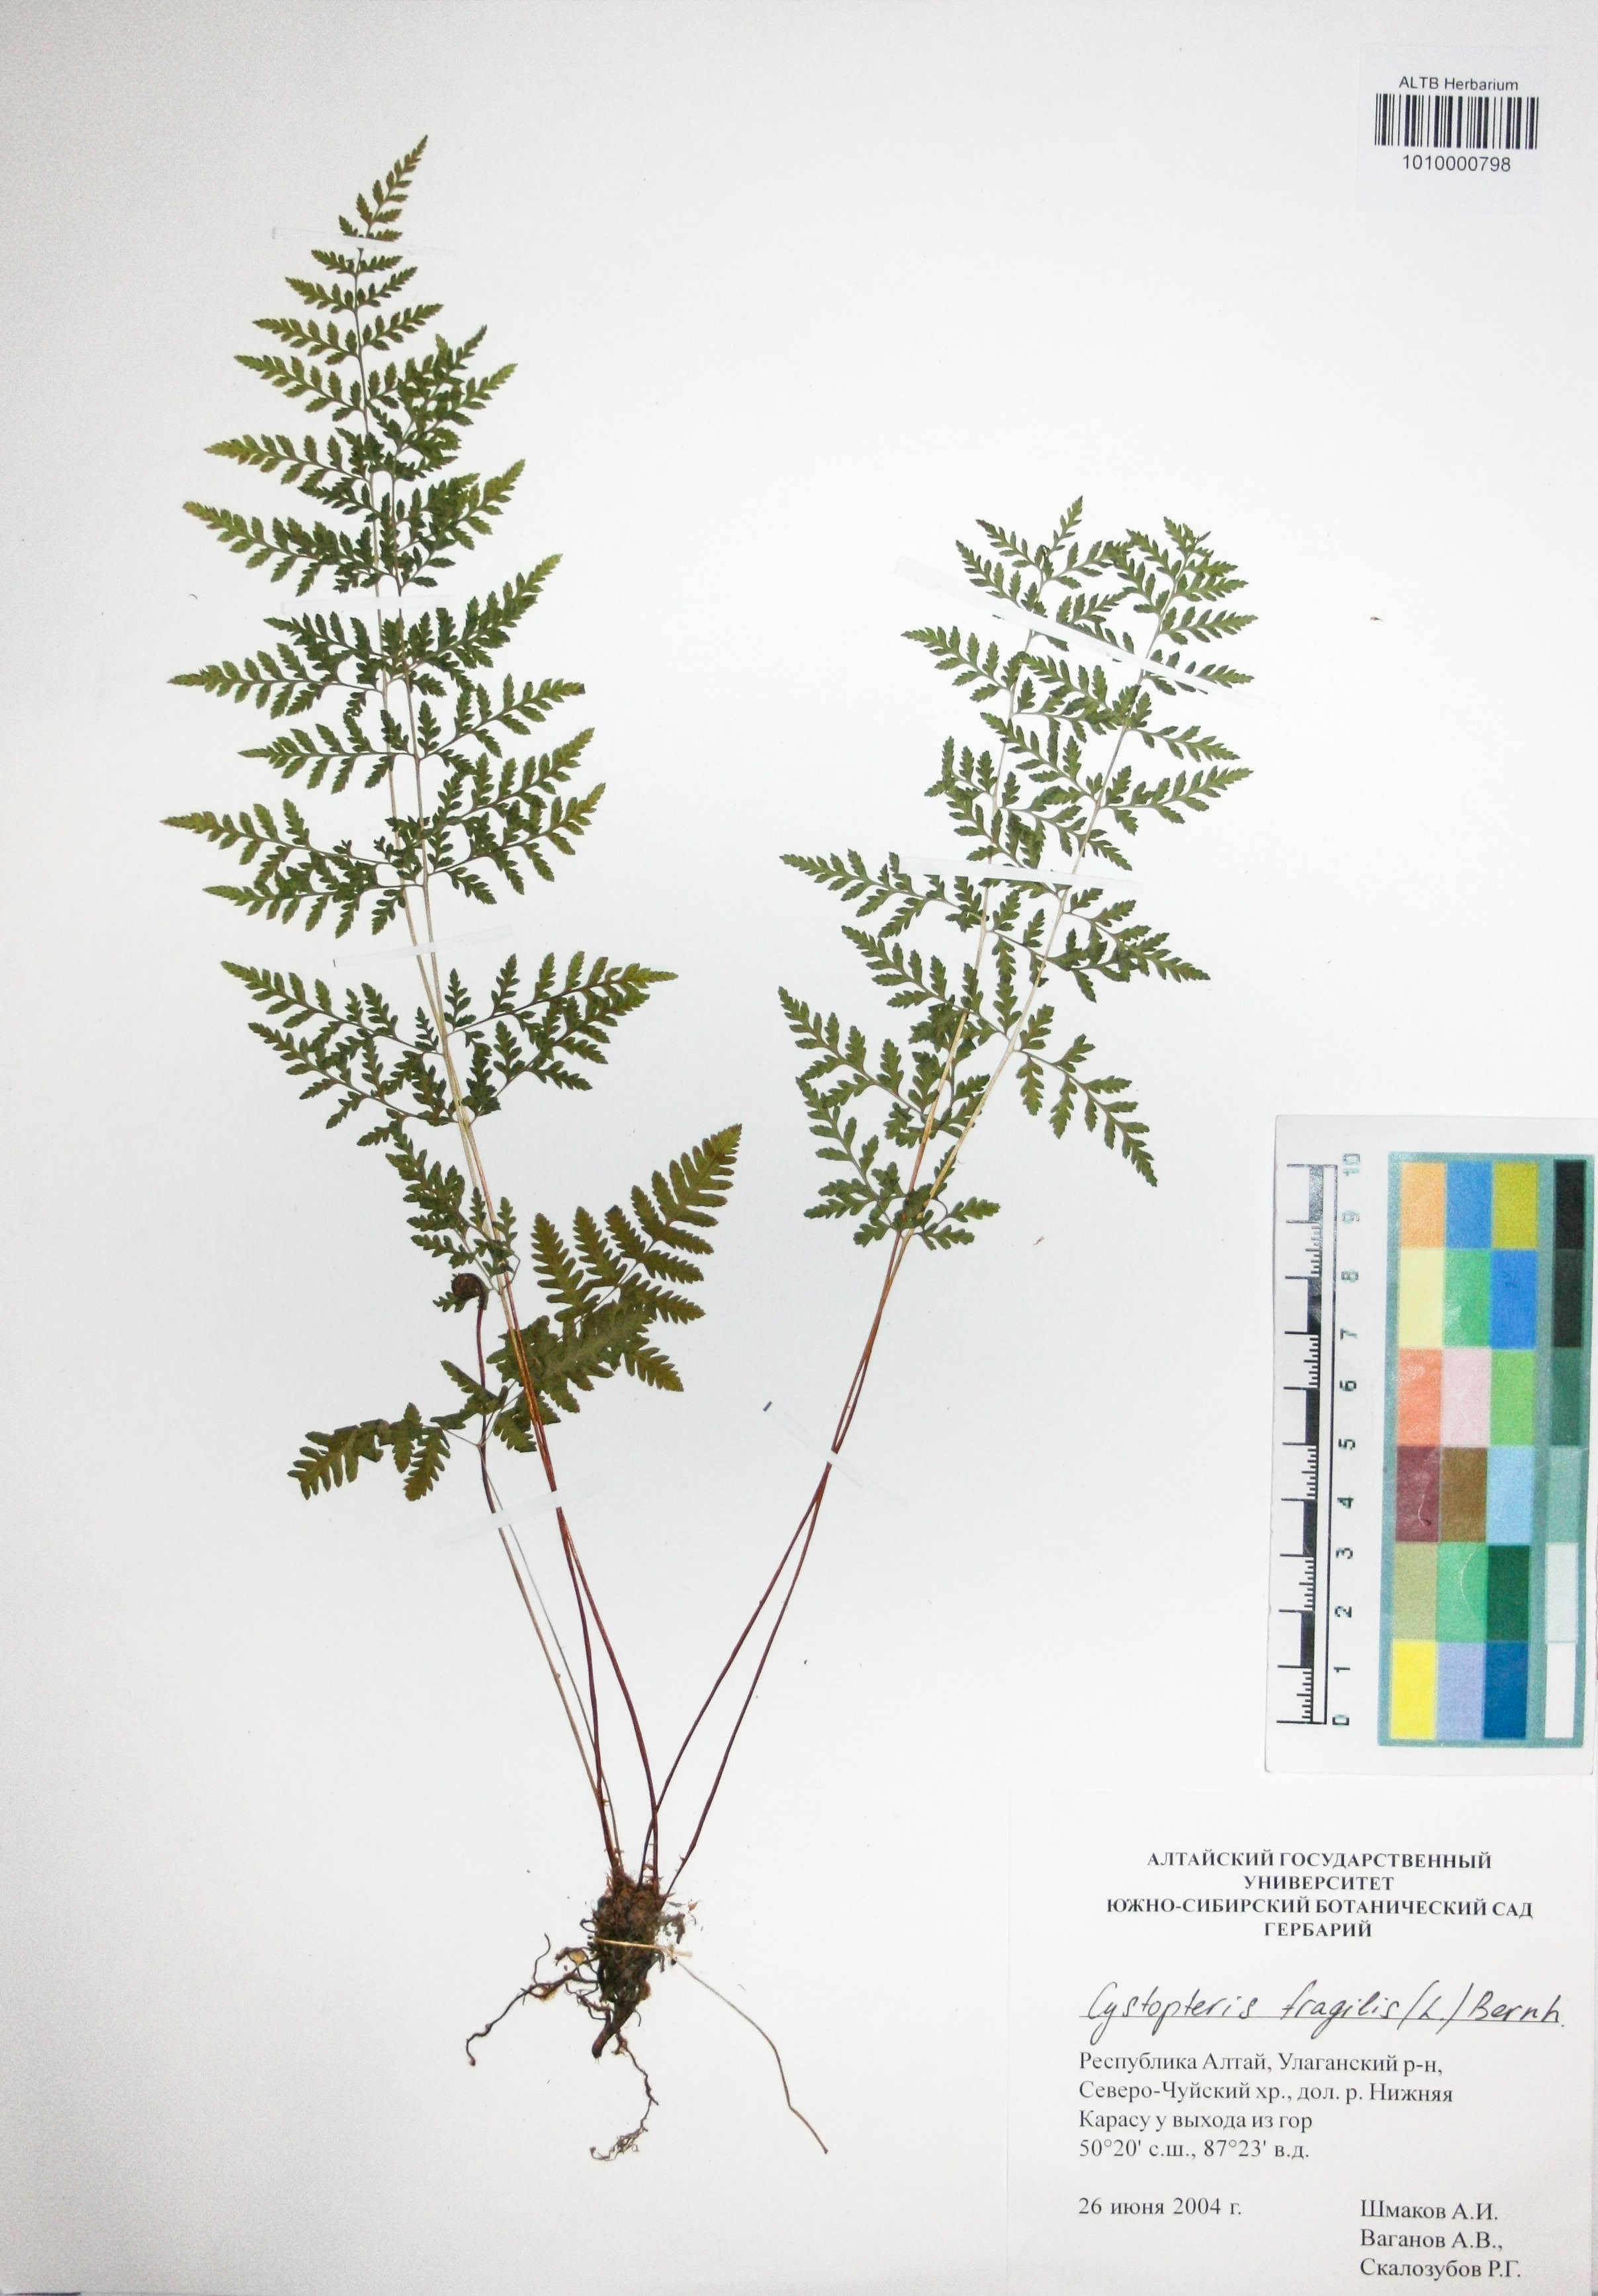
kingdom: Plantae
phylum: Tracheophyta
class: Polypodiopsida
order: Polypodiales
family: Cystopteridaceae
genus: Cystopteris
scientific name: Cystopteris fragilis
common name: Brittle bladder fern
